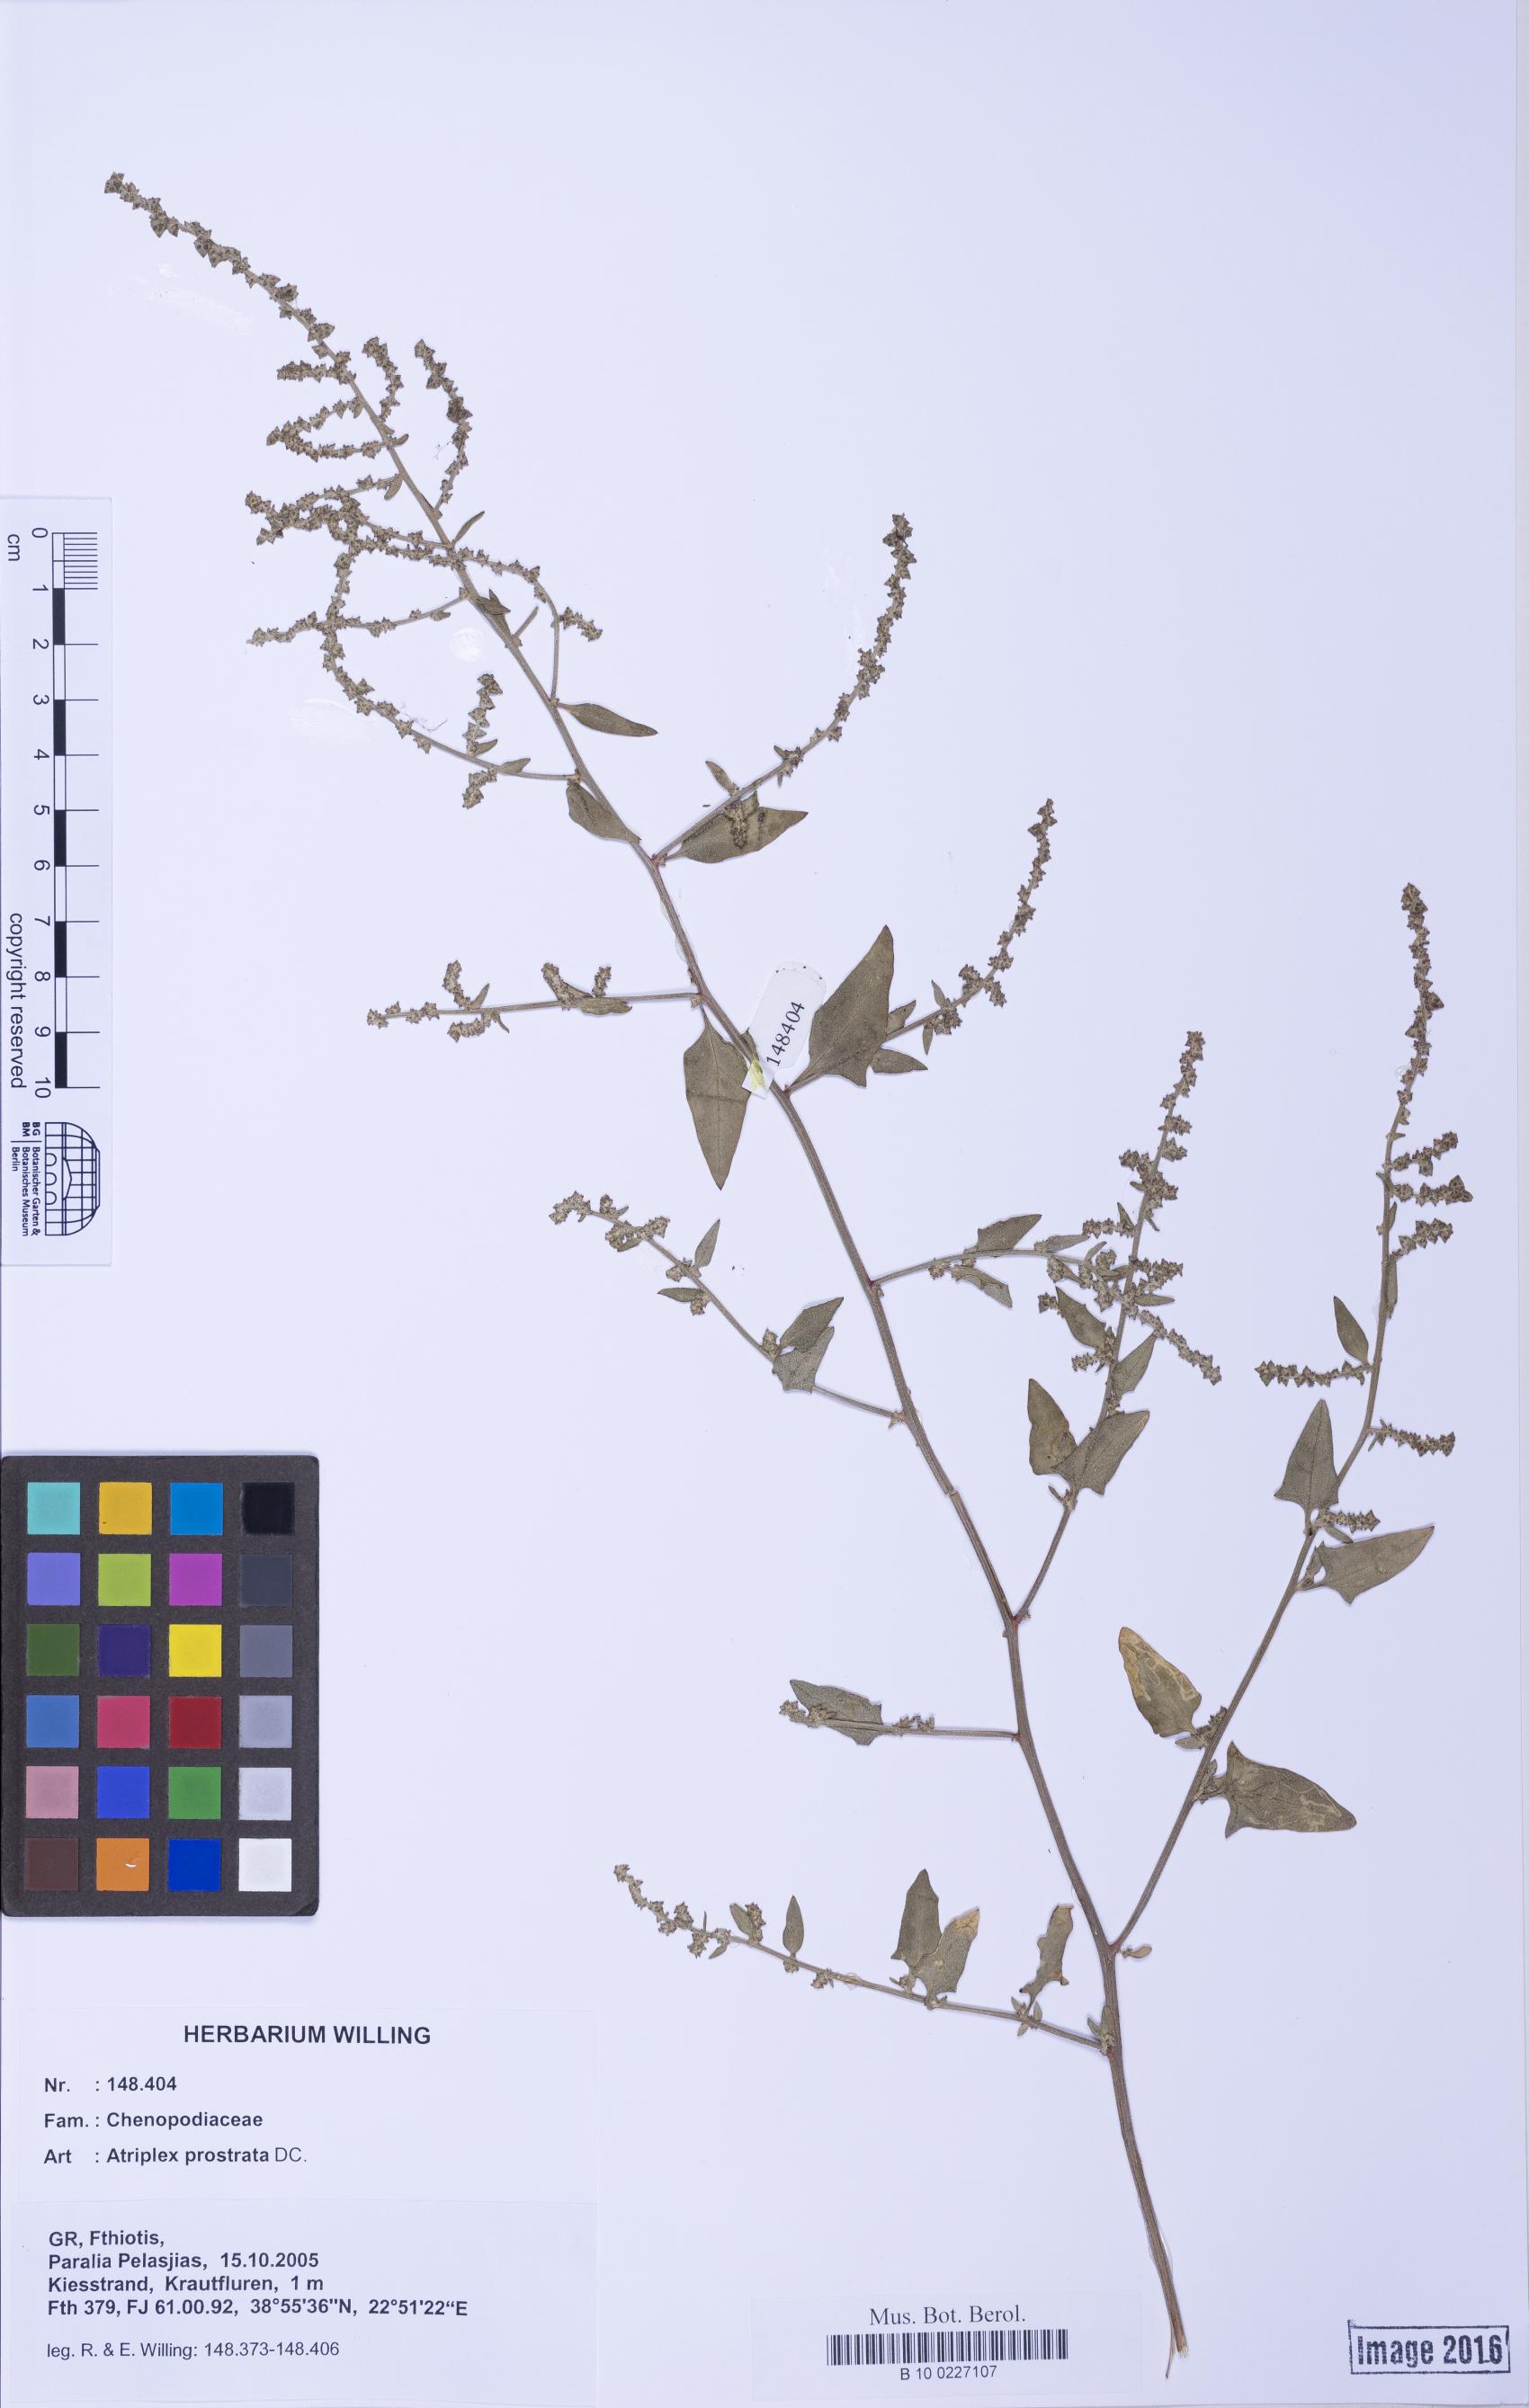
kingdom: Plantae
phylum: Tracheophyta
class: Magnoliopsida
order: Caryophyllales
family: Amaranthaceae
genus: Atriplex
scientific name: Atriplex prostrata
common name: Spear-leaved orache
